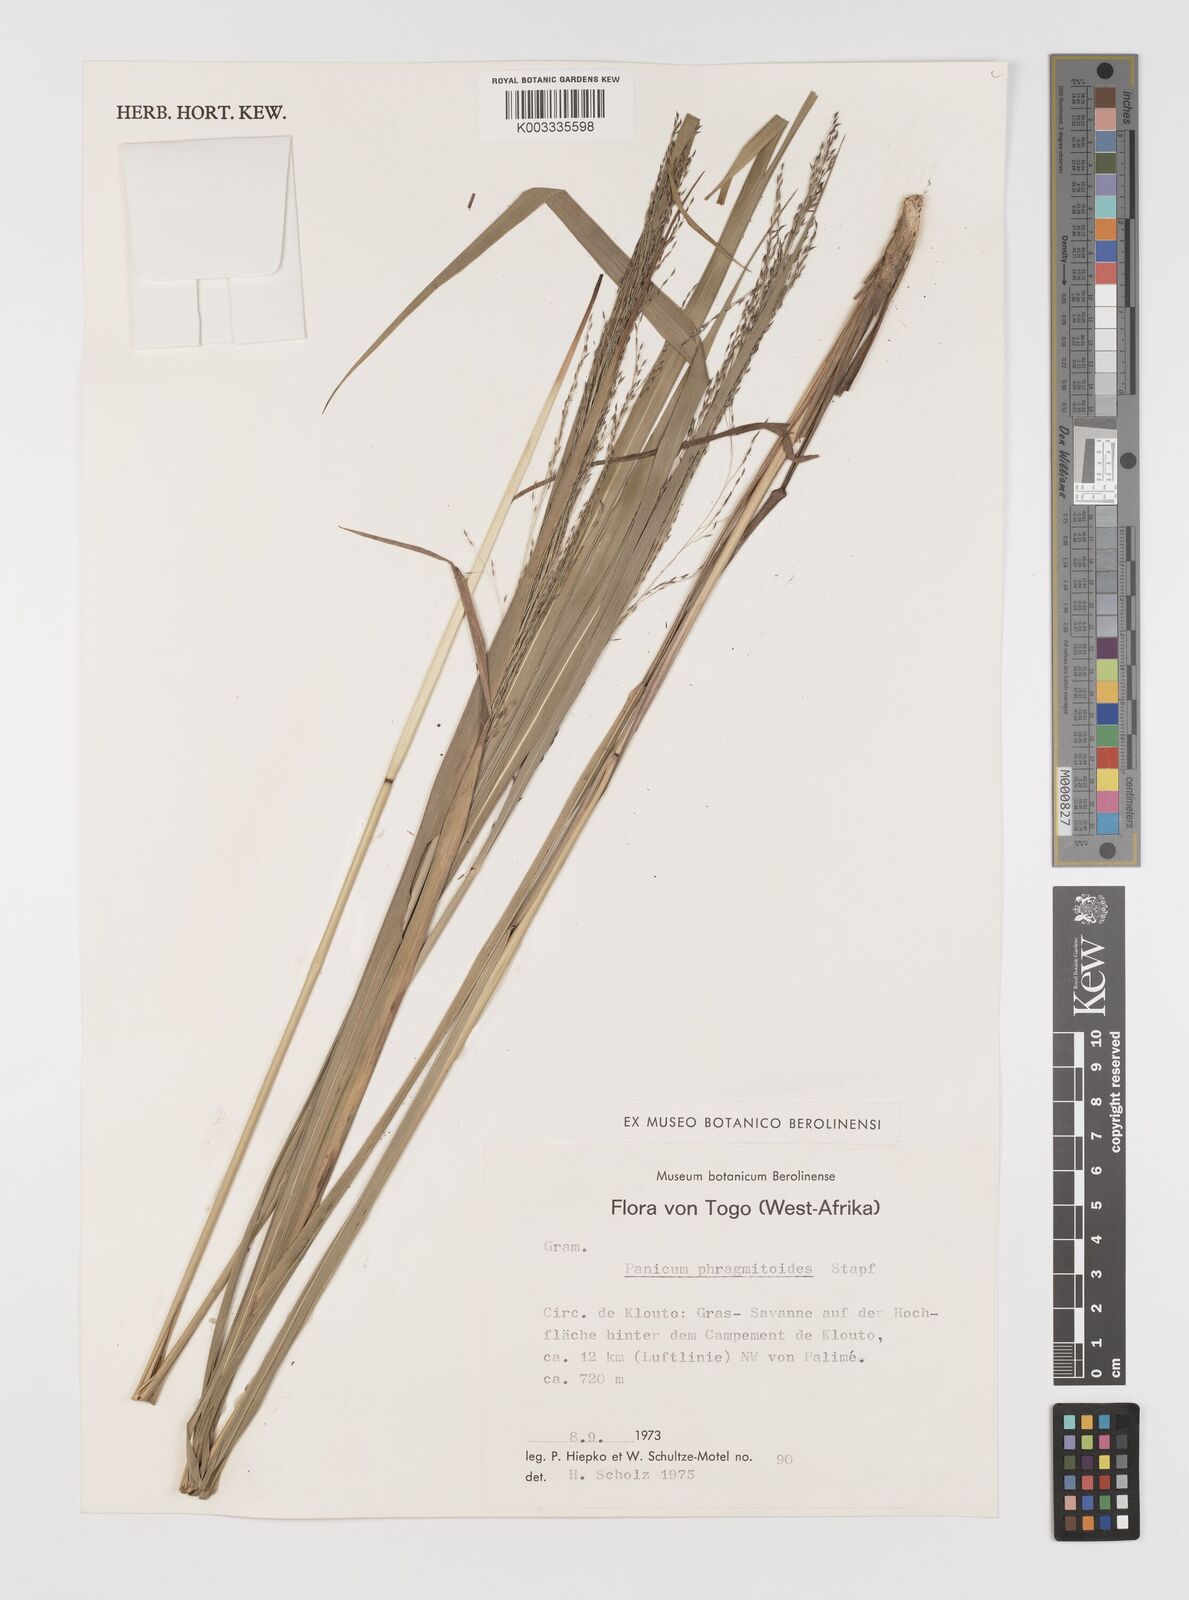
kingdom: Plantae
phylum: Tracheophyta
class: Liliopsida
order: Poales
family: Poaceae
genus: Panicum
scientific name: Panicum phragmitoides
